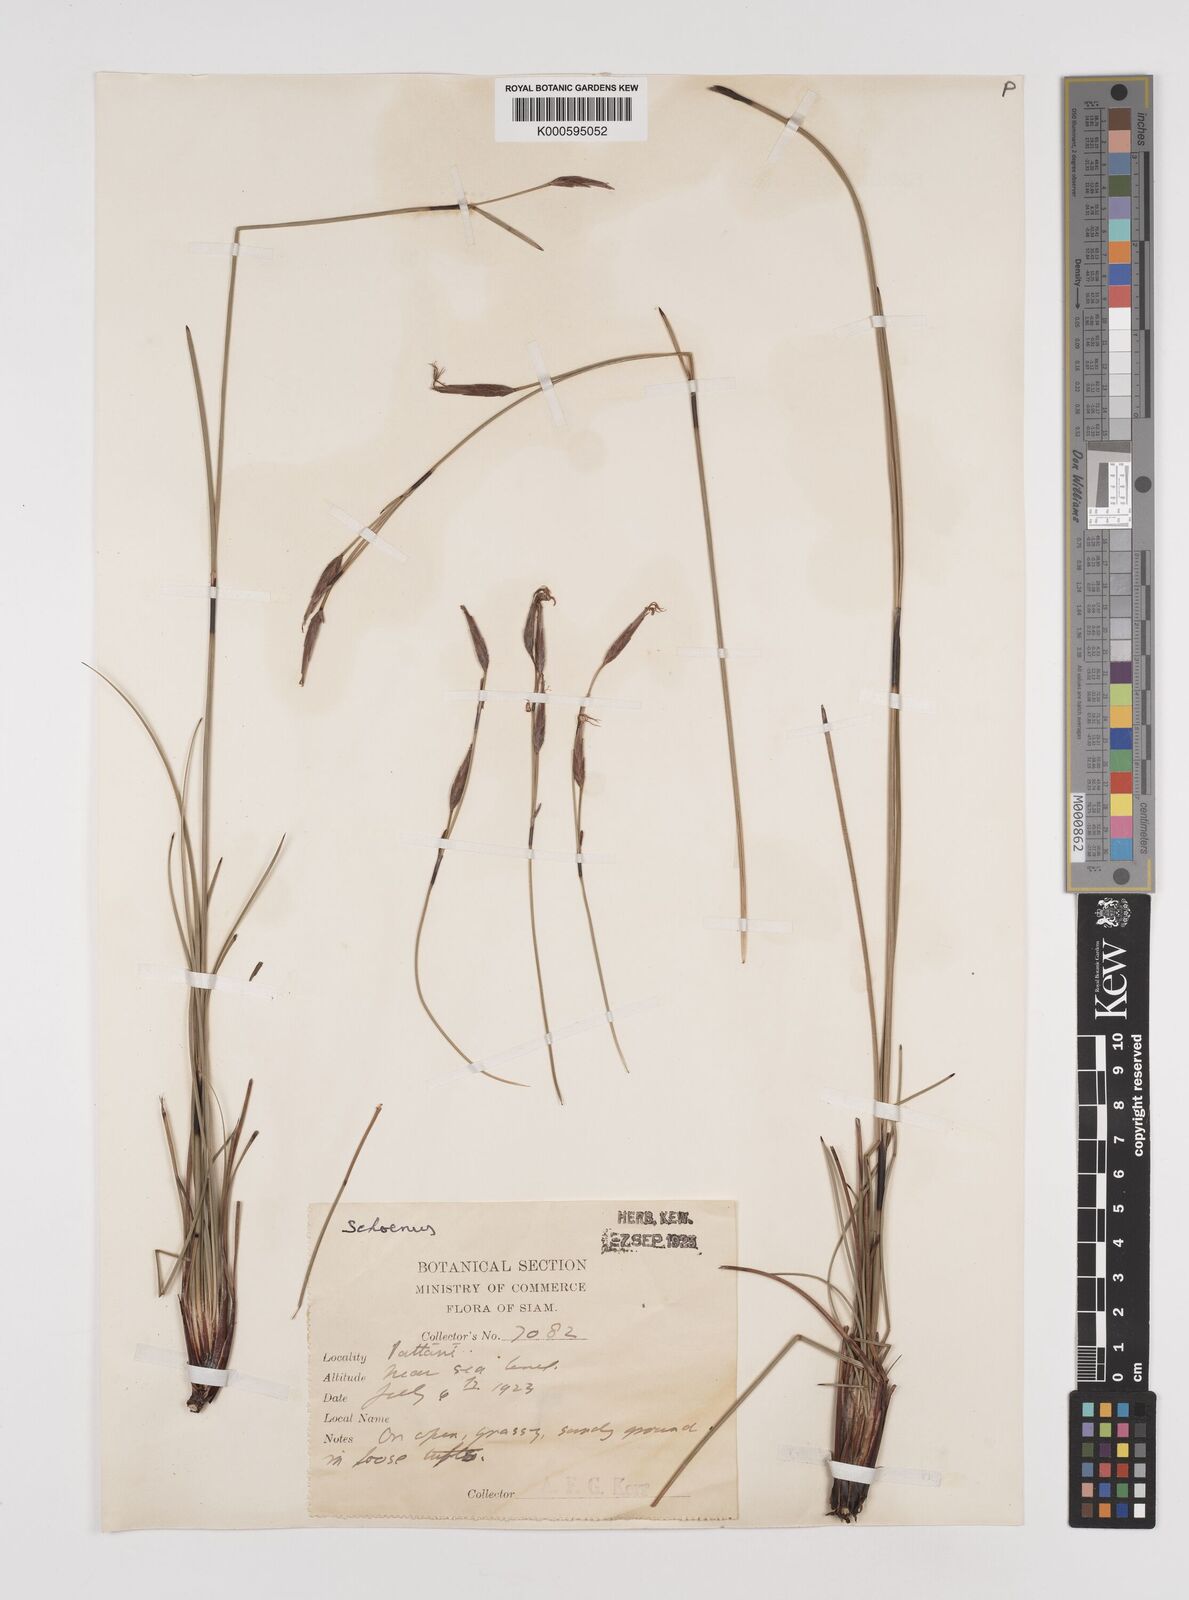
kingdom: Plantae
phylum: Tracheophyta
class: Liliopsida
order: Poales
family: Cyperaceae
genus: Schoenus
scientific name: Schoenus
